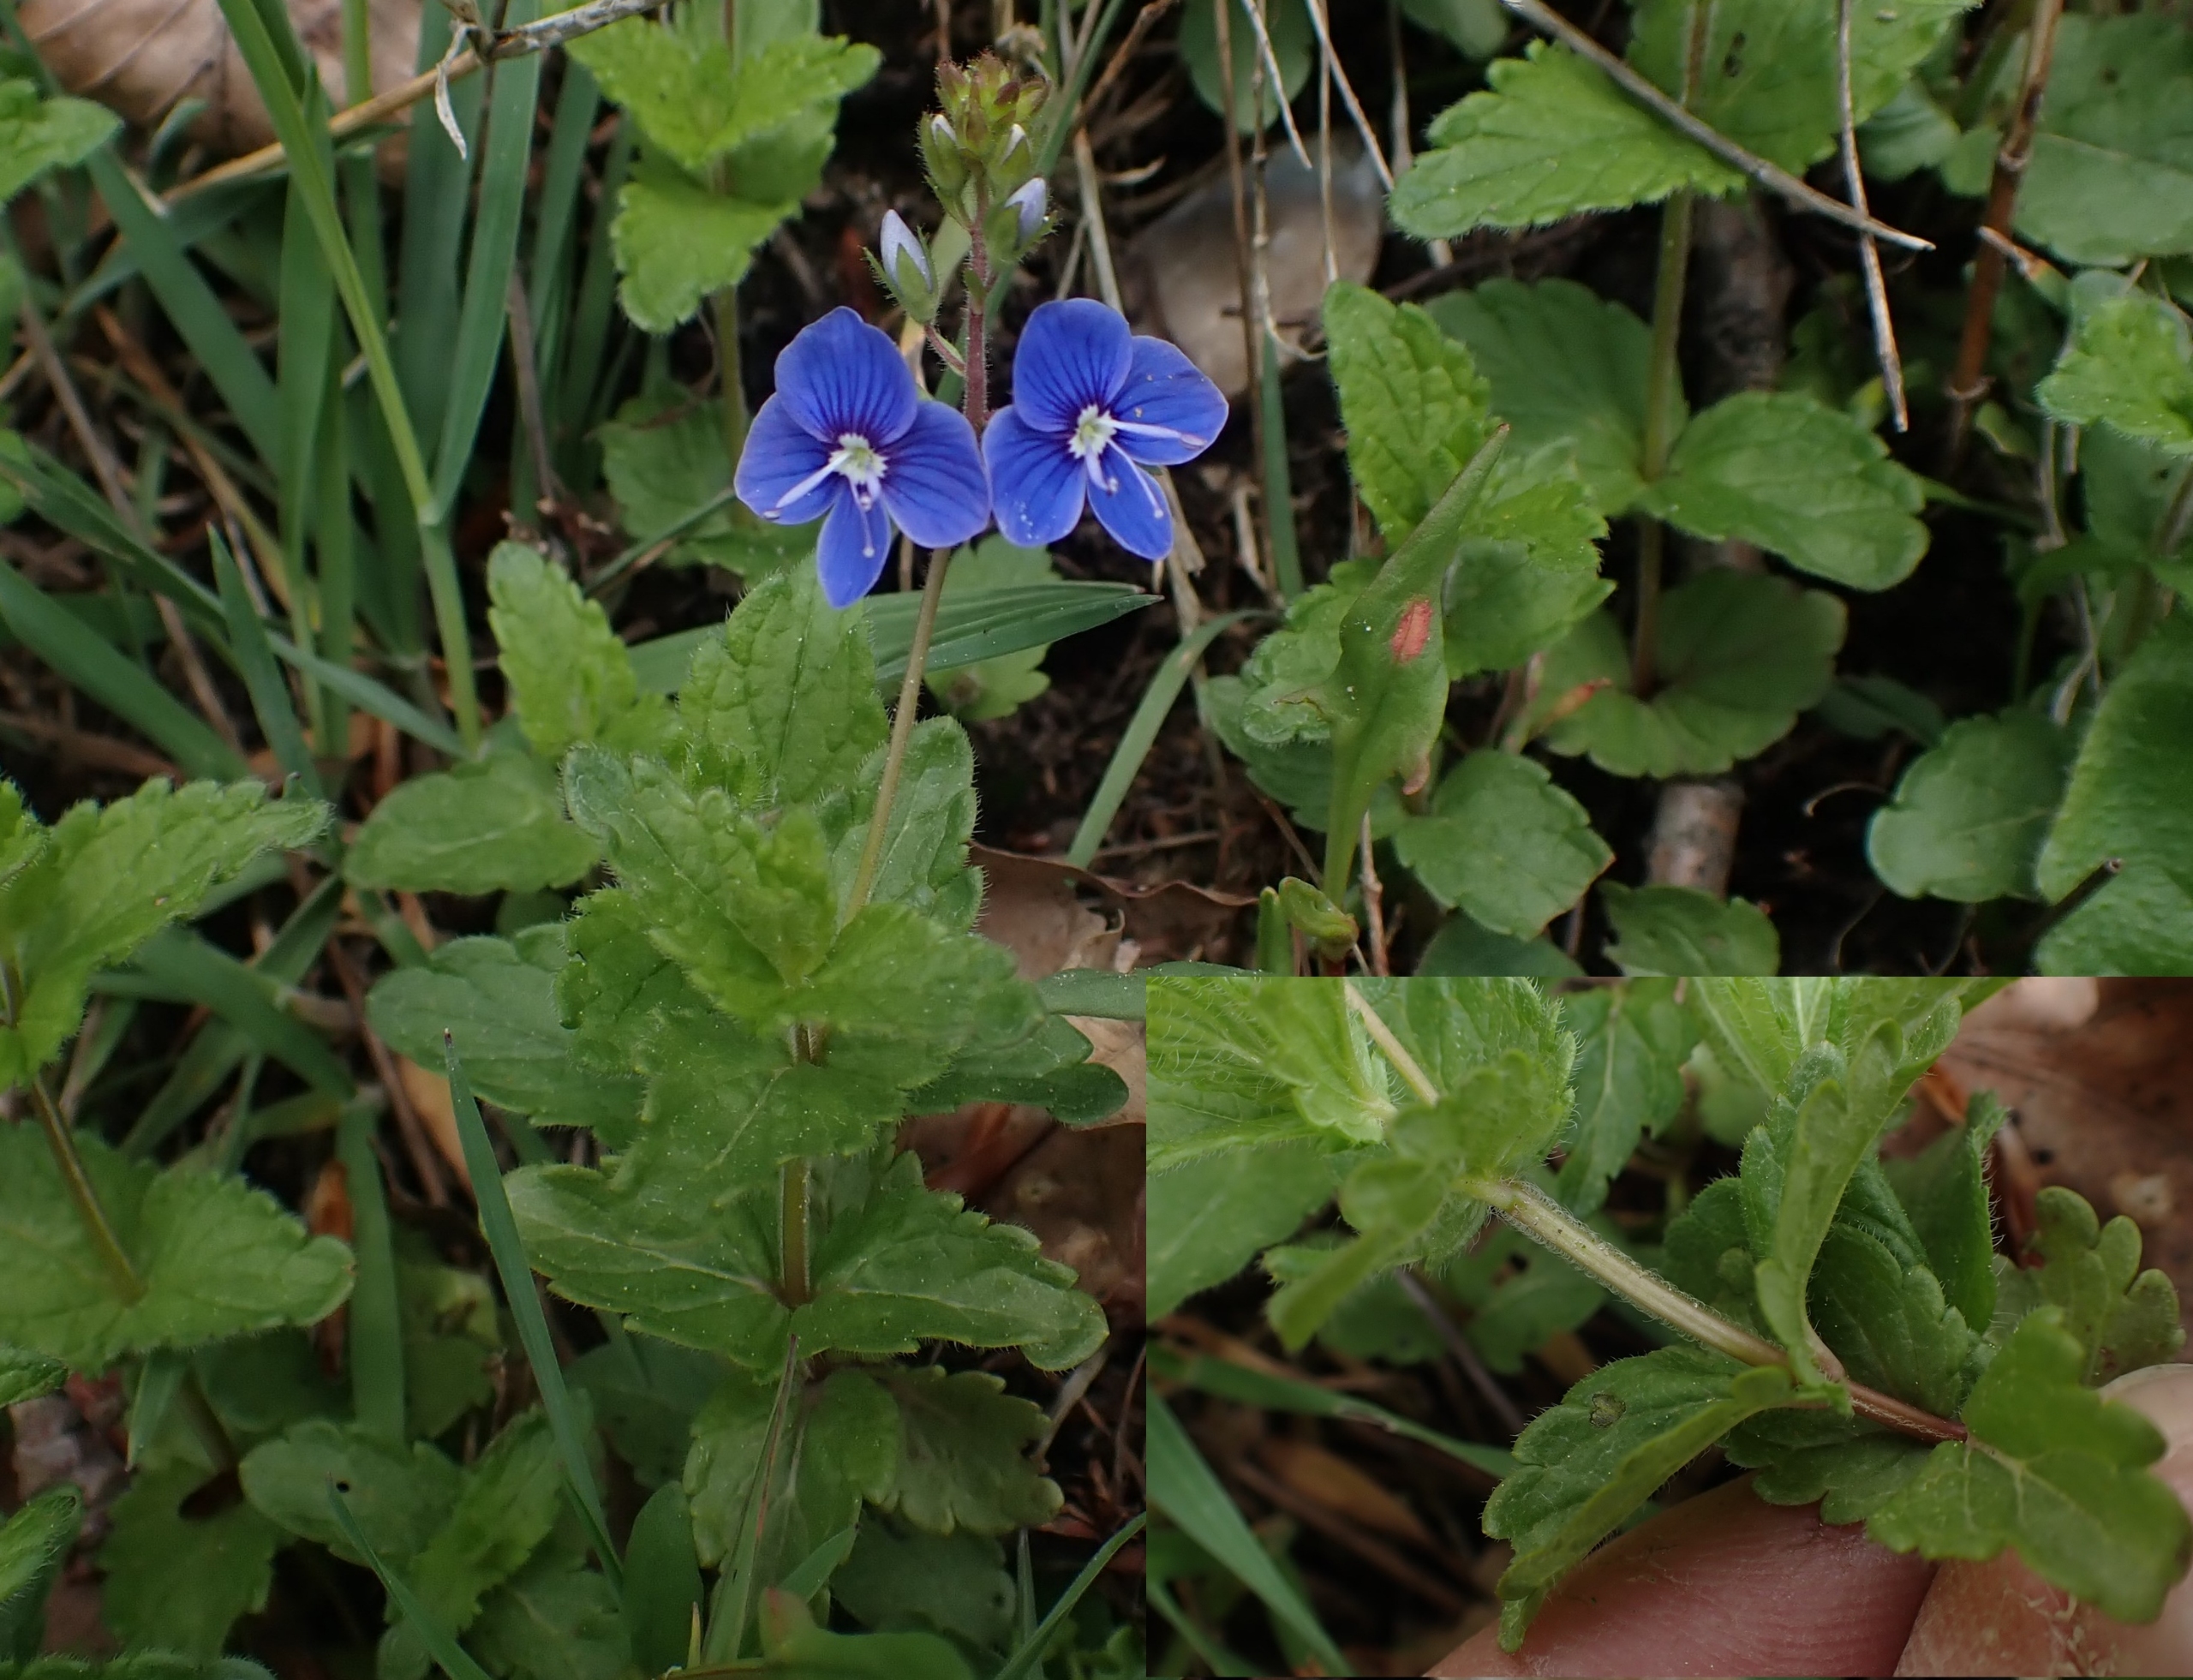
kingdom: Plantae
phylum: Tracheophyta
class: Magnoliopsida
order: Lamiales
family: Plantaginaceae
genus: Veronica
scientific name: Veronica chamaedrys
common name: Tveskægget ærenpris
